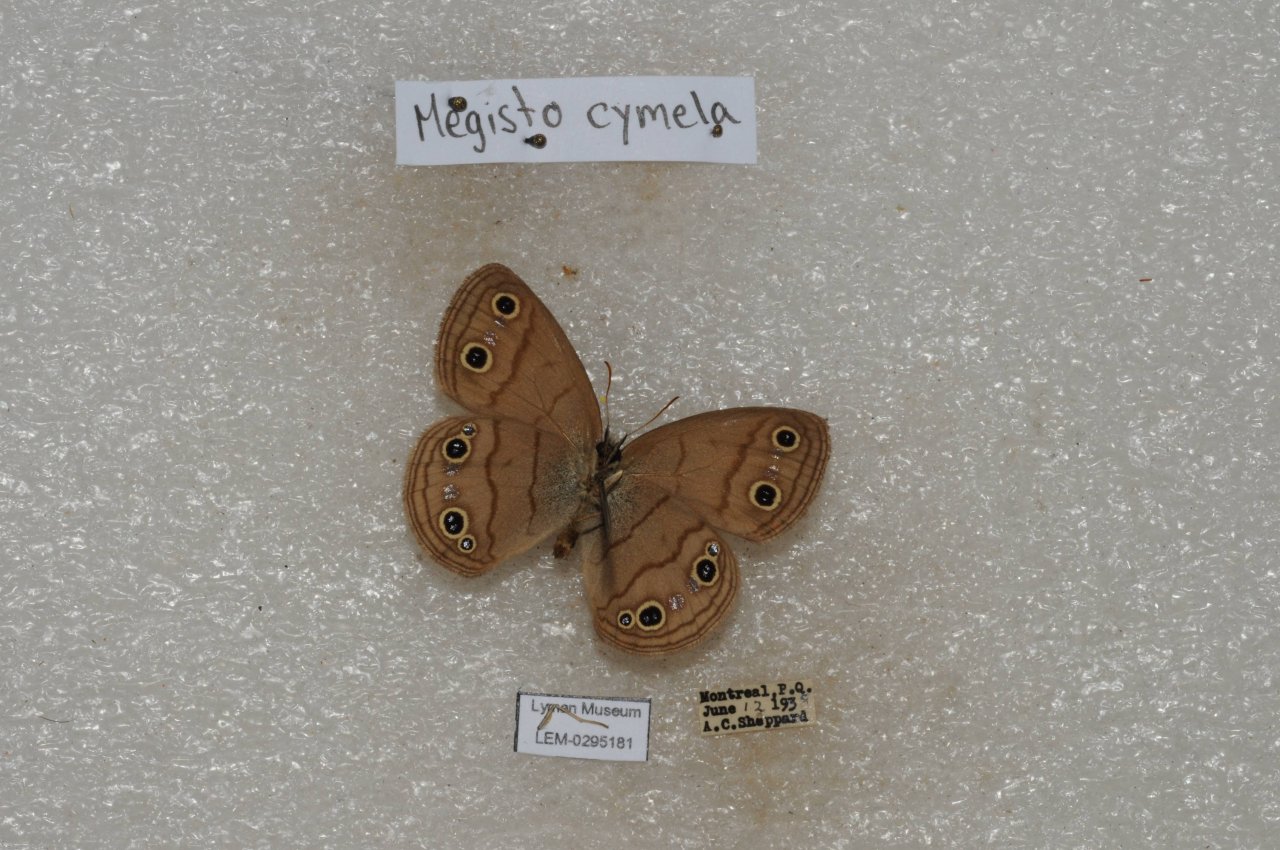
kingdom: Animalia
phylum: Arthropoda
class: Insecta
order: Lepidoptera
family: Nymphalidae
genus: Euptychia
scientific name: Euptychia cymela
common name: Little Wood Satyr
